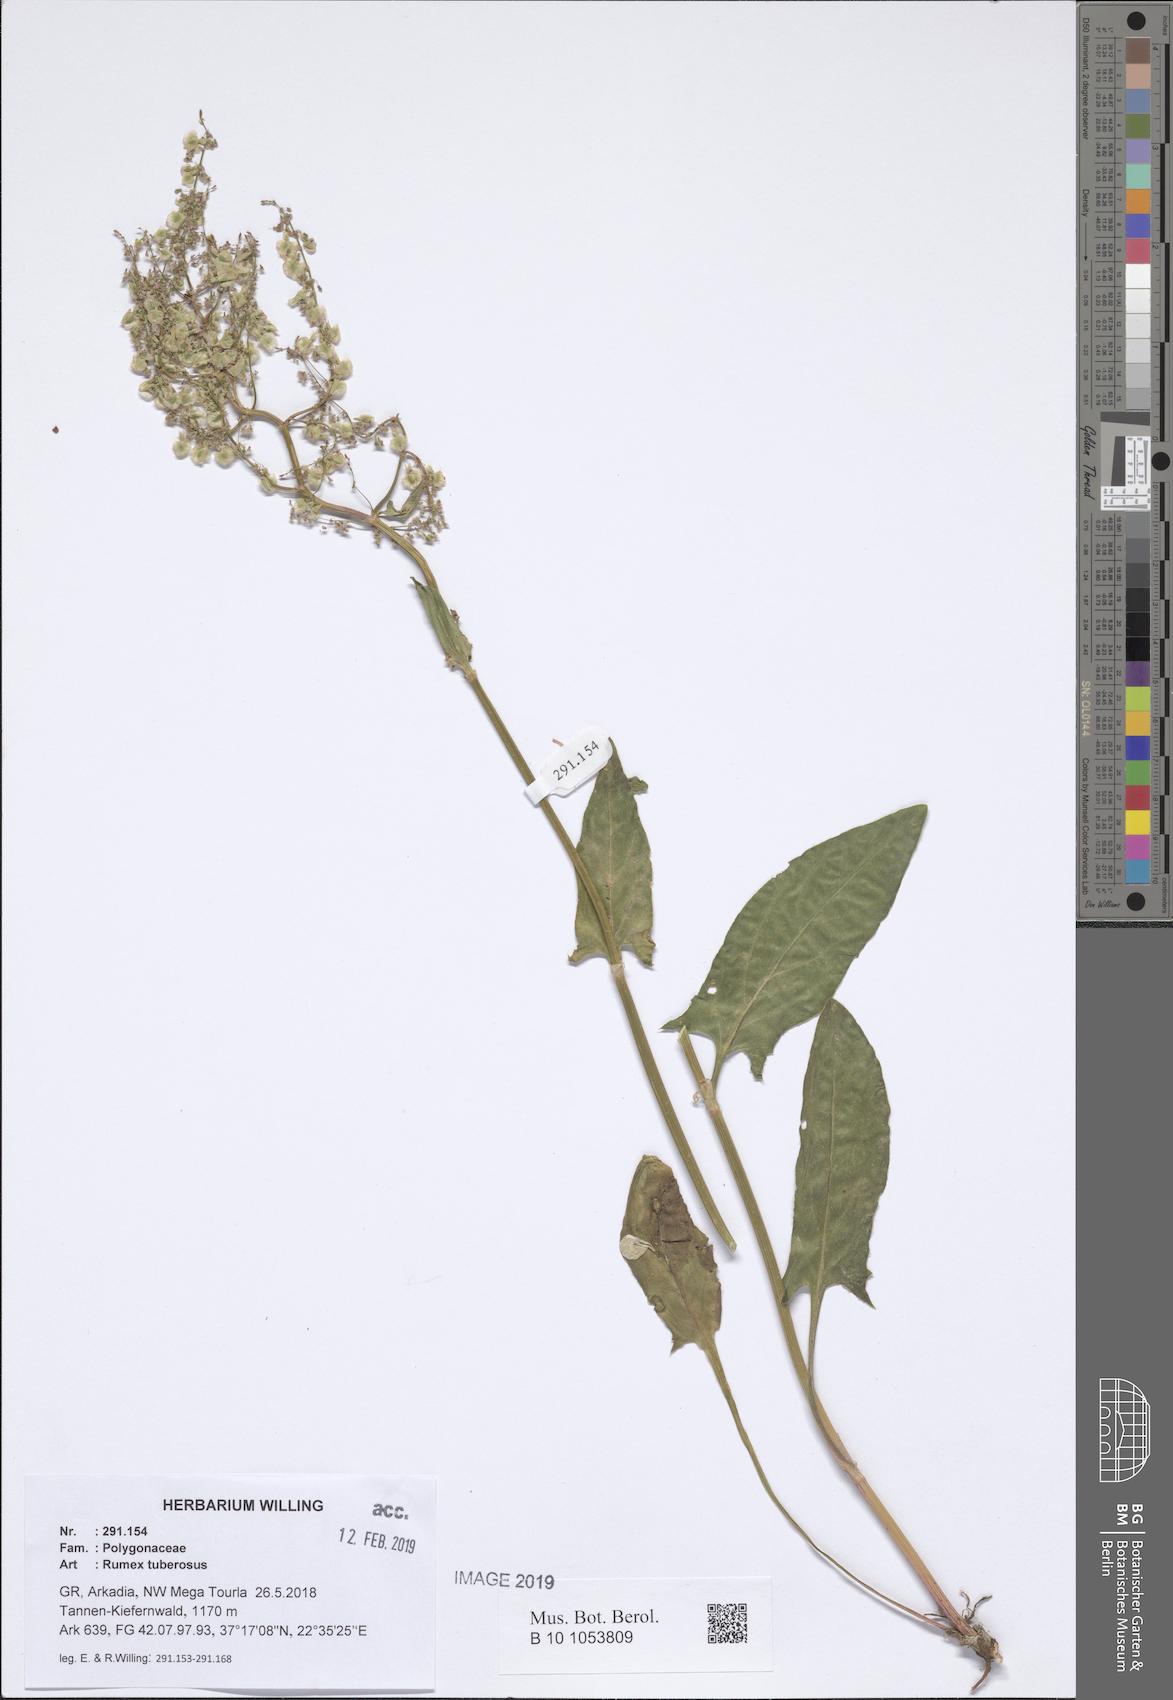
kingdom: Plantae
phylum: Tracheophyta
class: Magnoliopsida
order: Caryophyllales
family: Polygonaceae
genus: Rumex
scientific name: Rumex tuberosus
